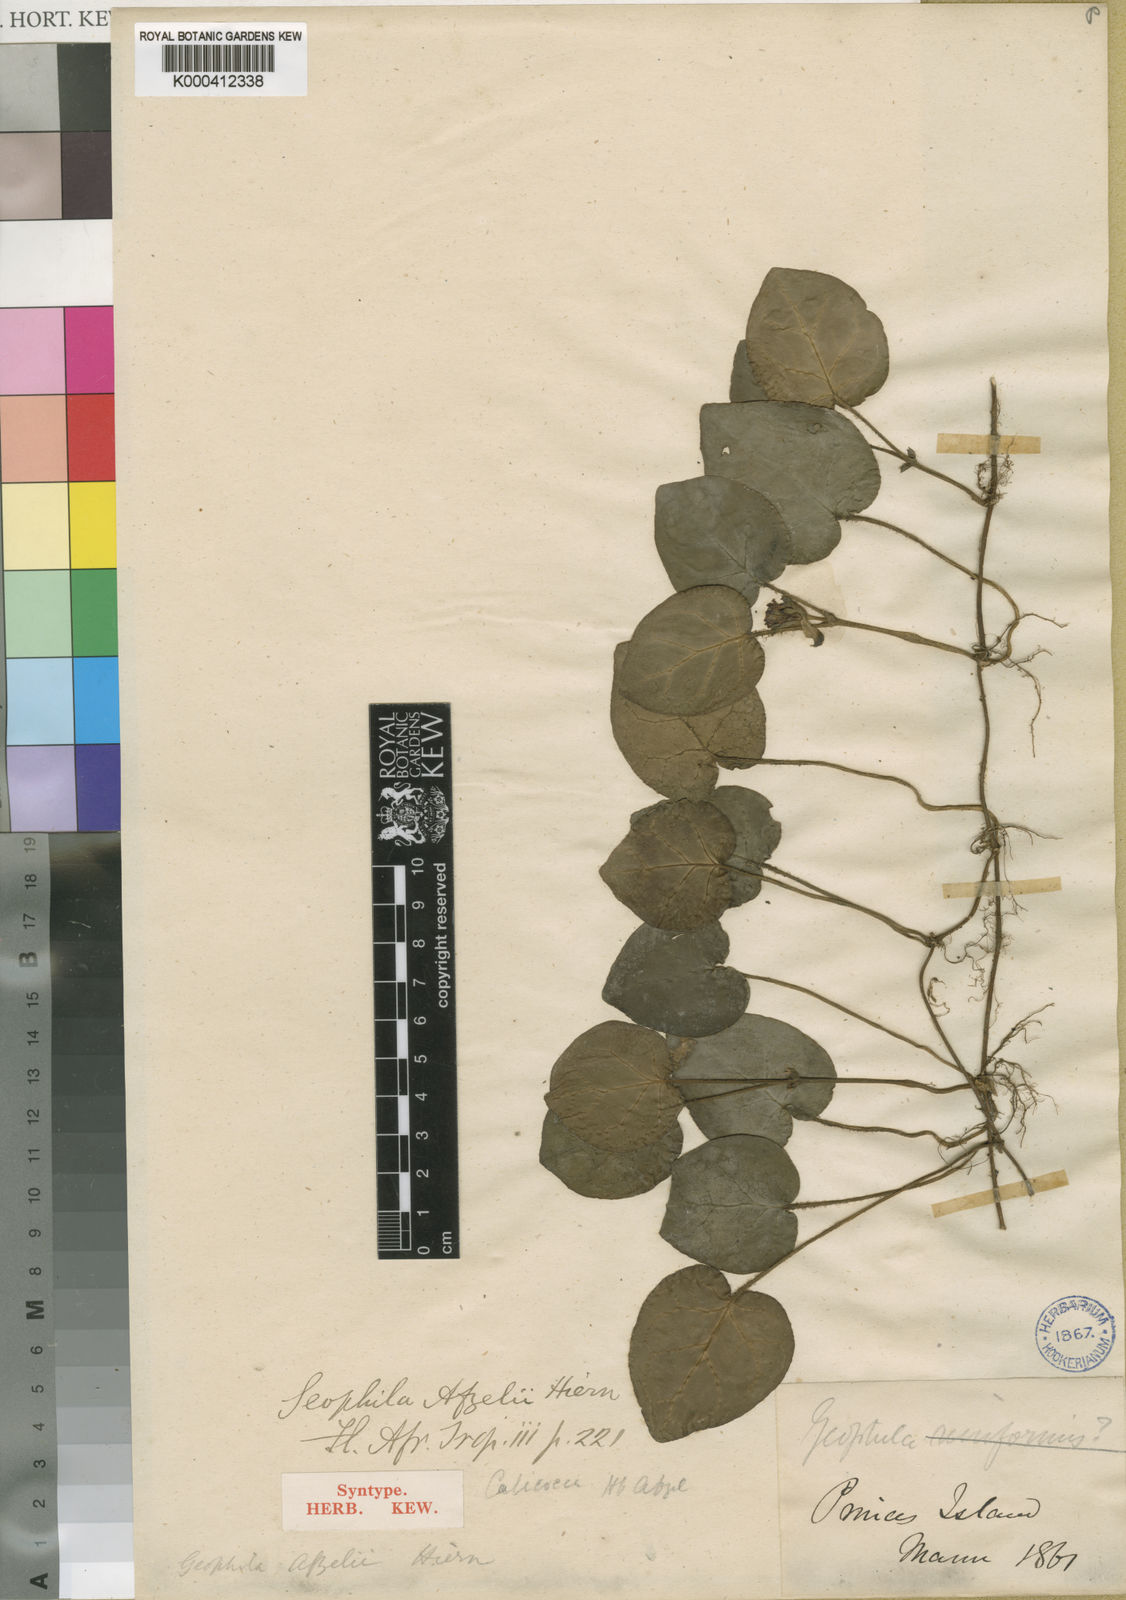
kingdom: Plantae
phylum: Tracheophyta
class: Magnoliopsida
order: Gentianales
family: Rubiaceae
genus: Geophila
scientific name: Geophila afzelii
